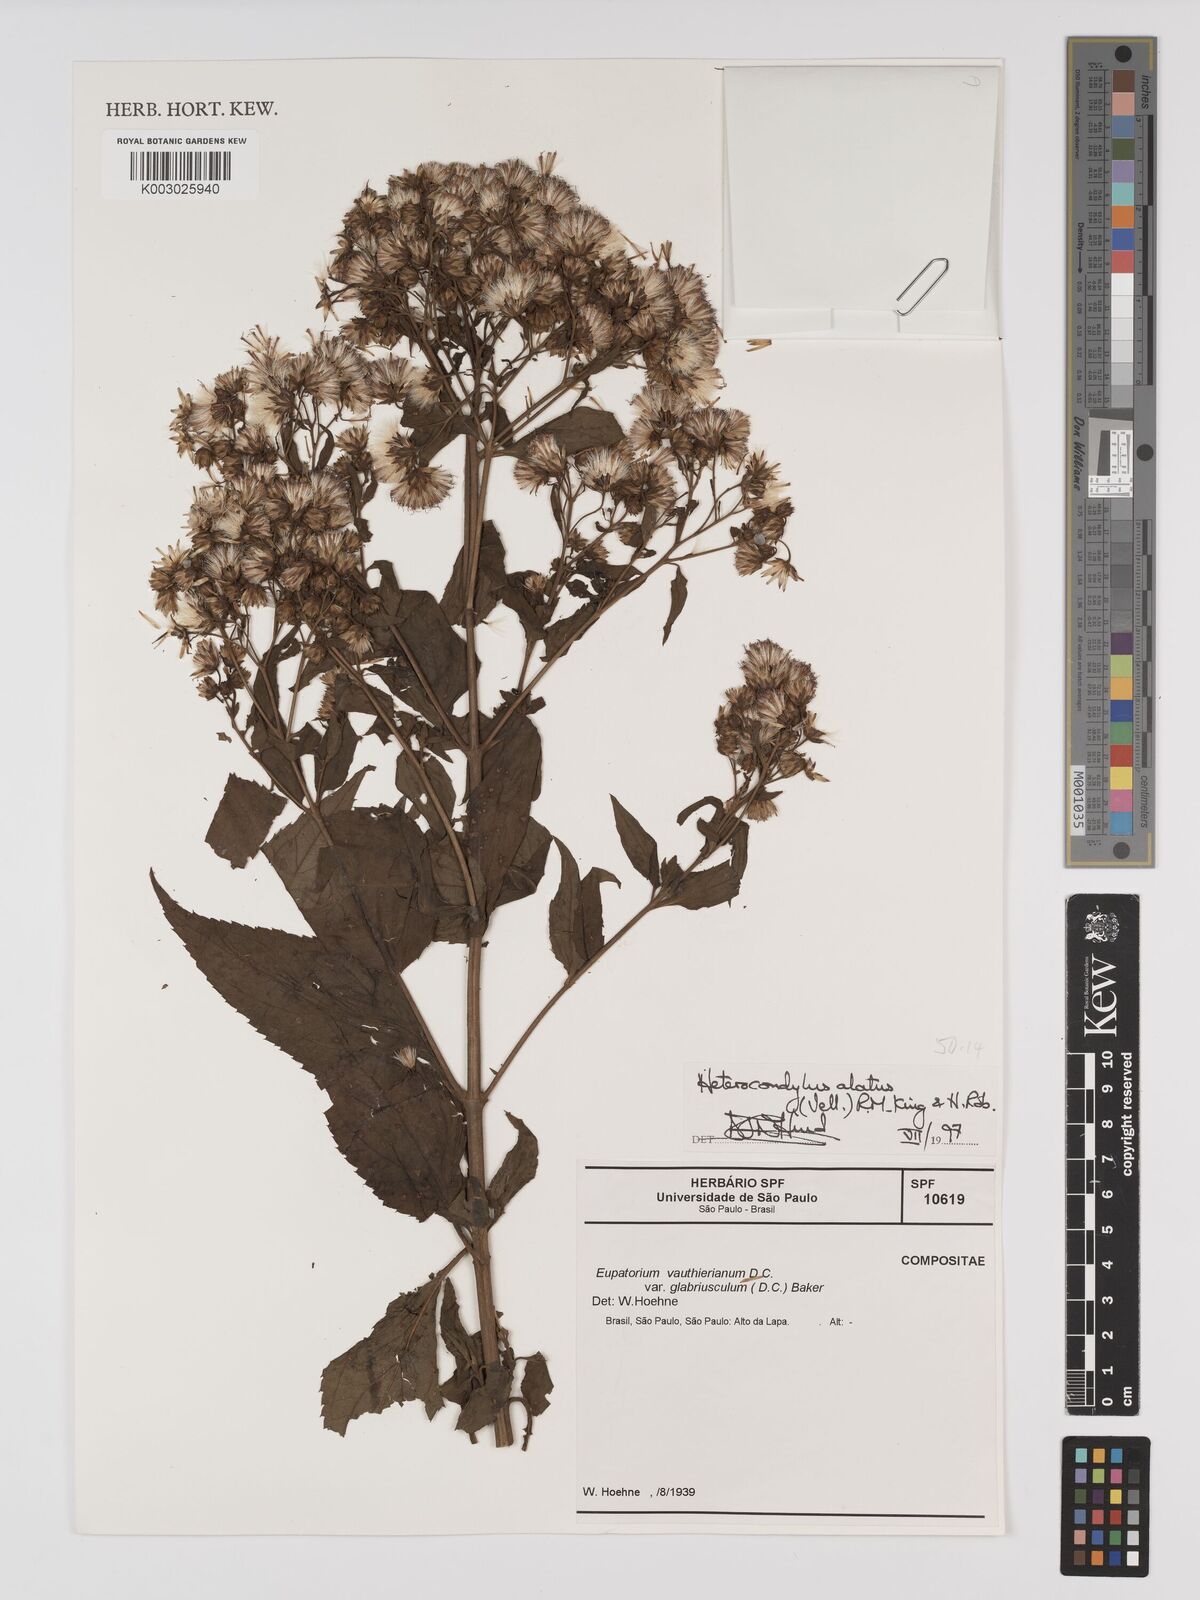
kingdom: Plantae
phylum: Tracheophyta
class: Magnoliopsida
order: Asterales
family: Asteraceae
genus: Heterocondylus
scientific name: Heterocondylus alatus
